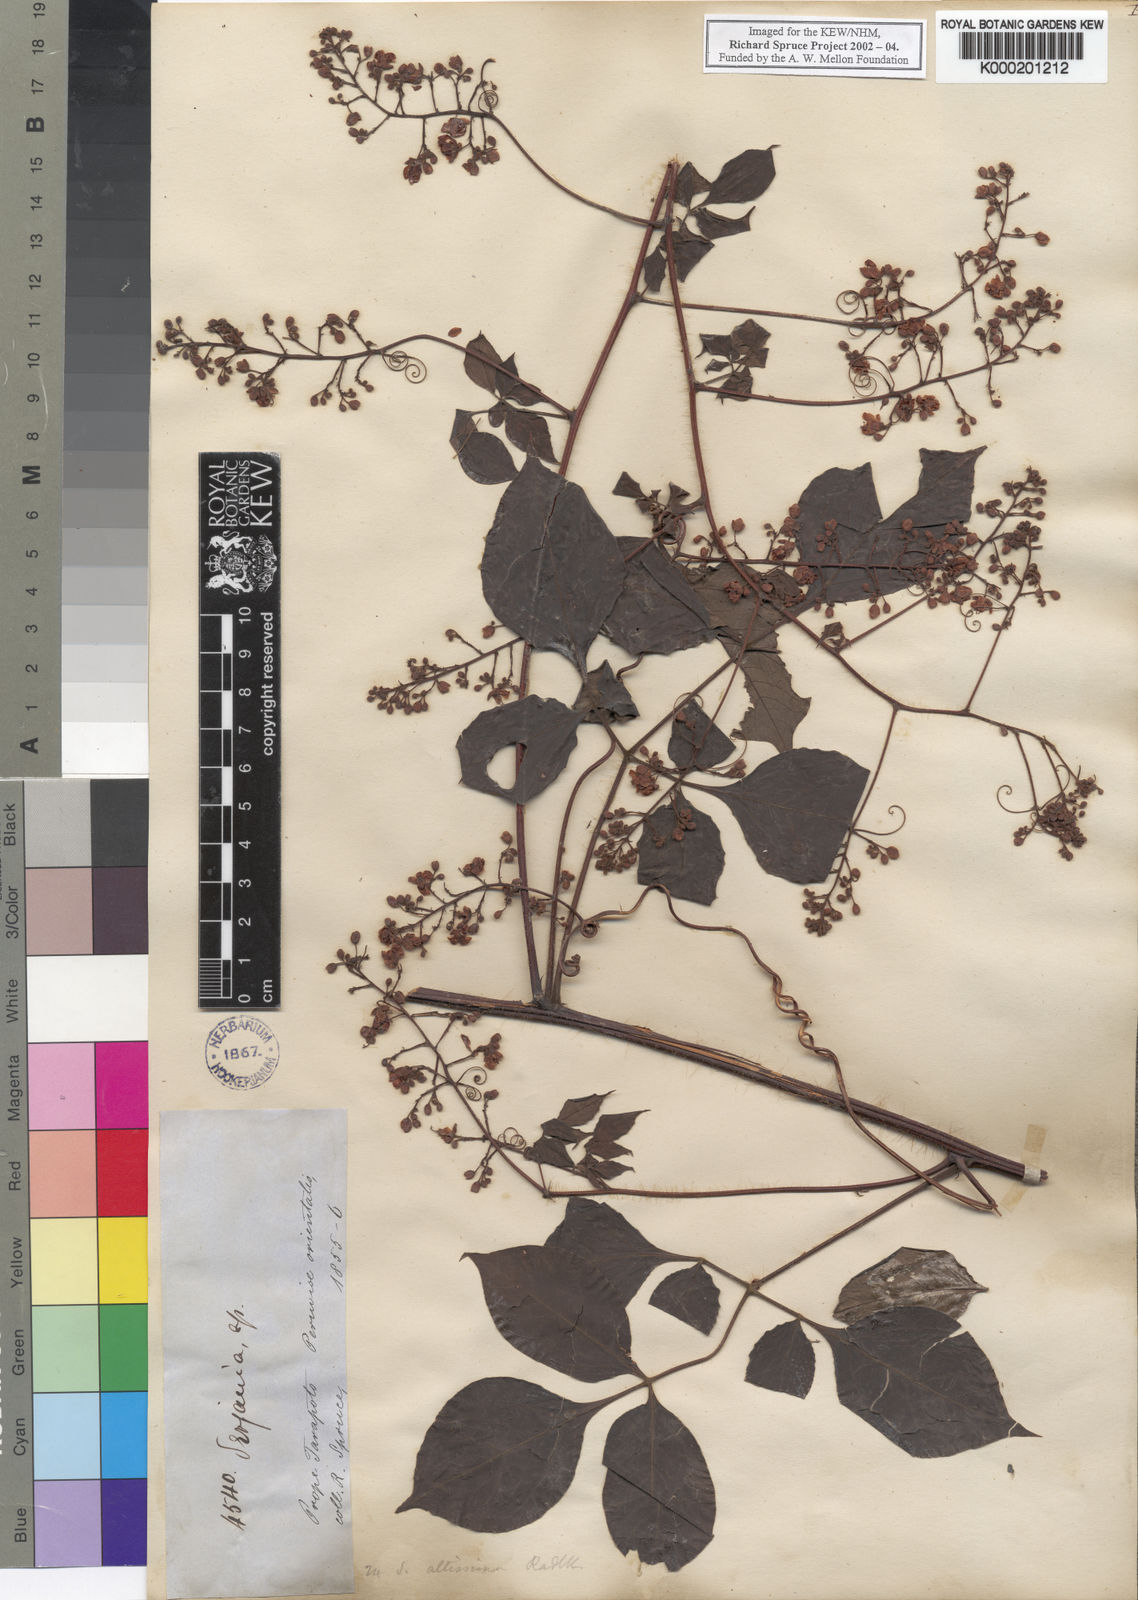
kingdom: Plantae
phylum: Tracheophyta
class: Magnoliopsida
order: Sapindales
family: Sapindaceae
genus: Serjania
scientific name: Serjania altissima
